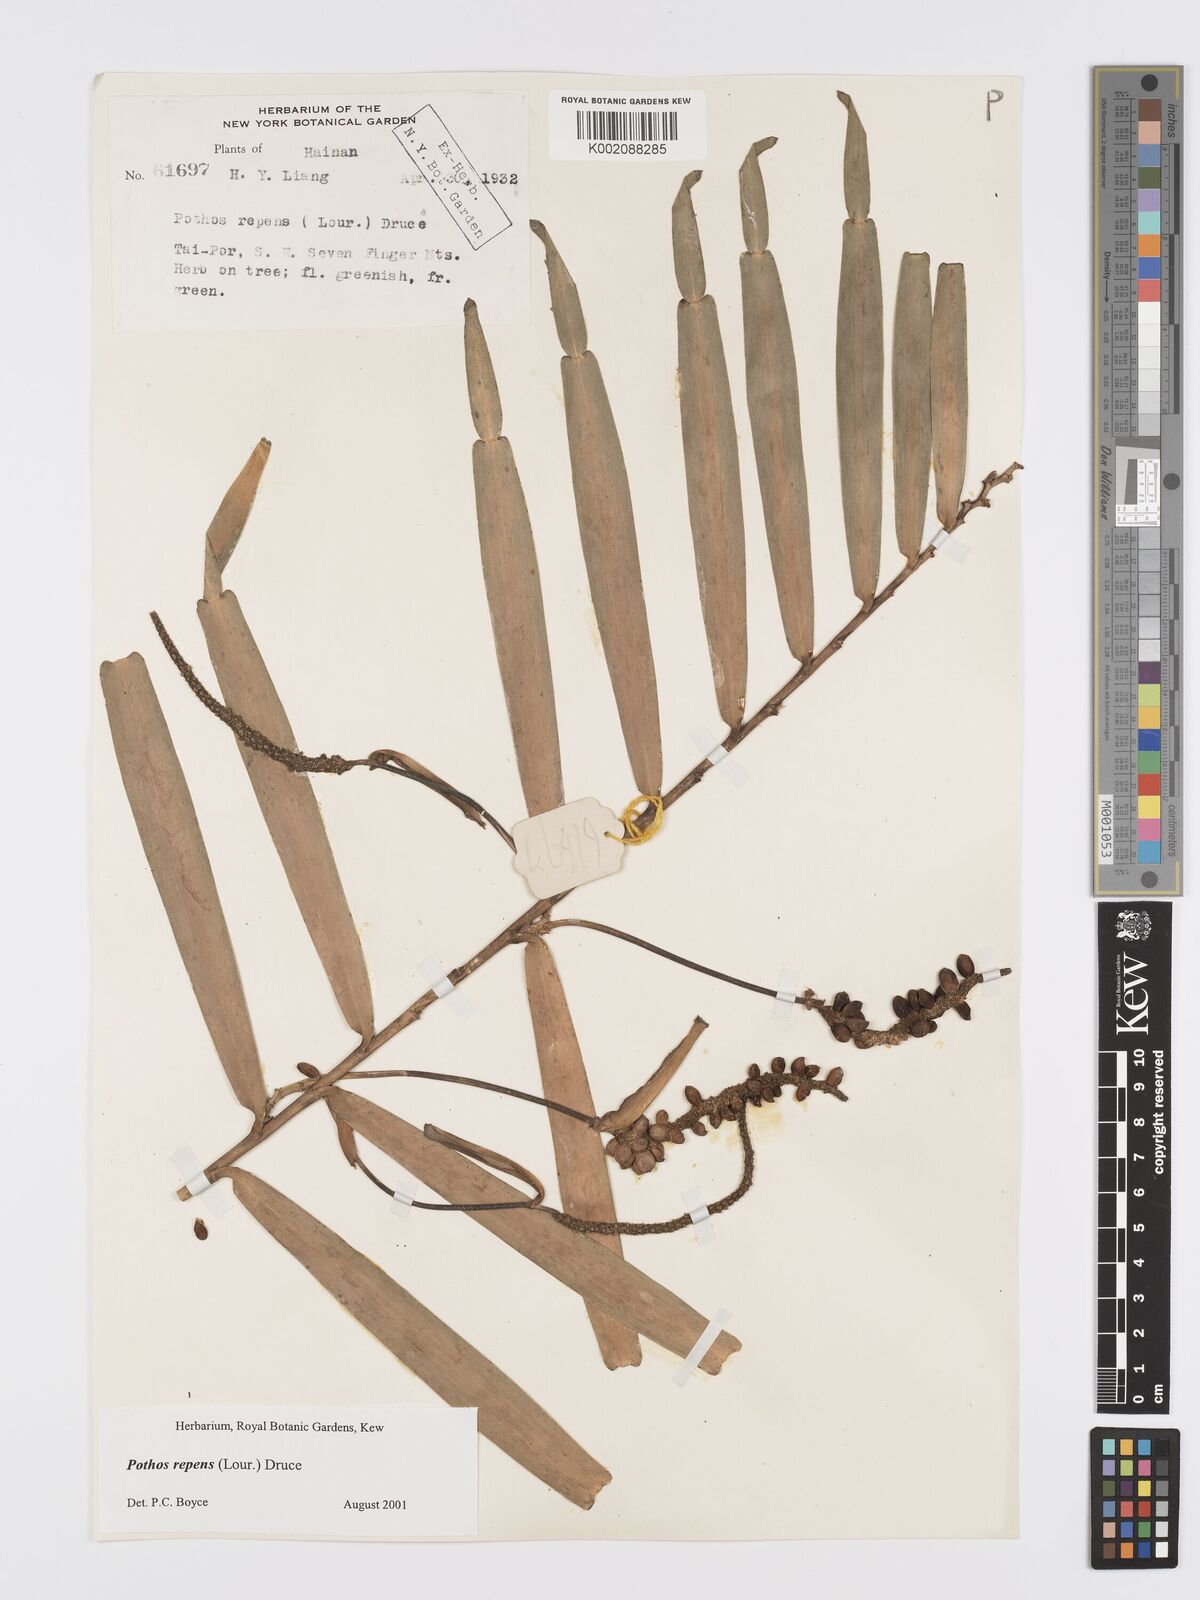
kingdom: Plantae
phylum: Tracheophyta
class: Liliopsida
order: Alismatales
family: Araceae
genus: Pothos
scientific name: Pothos repens
